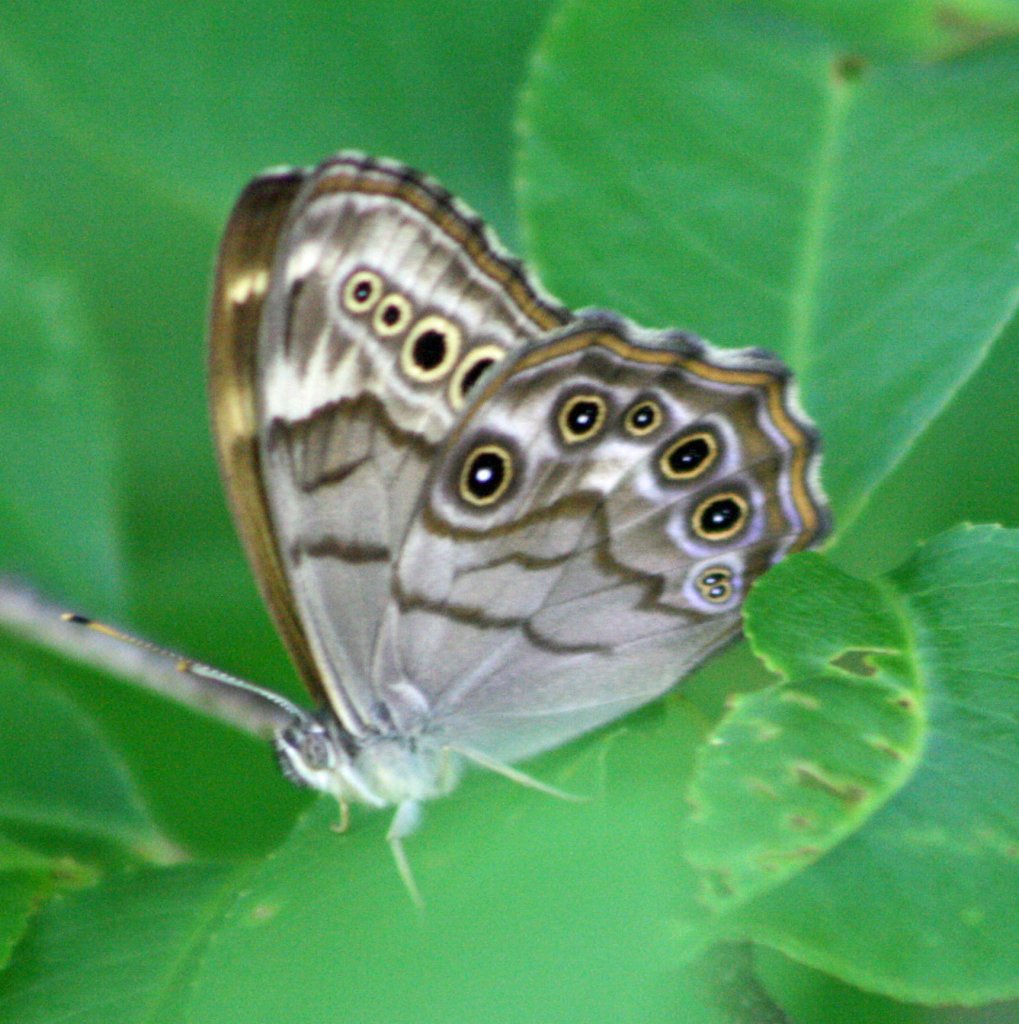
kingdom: Animalia
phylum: Arthropoda
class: Insecta
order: Lepidoptera
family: Nymphalidae
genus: Lethe
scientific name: Lethe anthedon
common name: Northern Pearly-Eye
